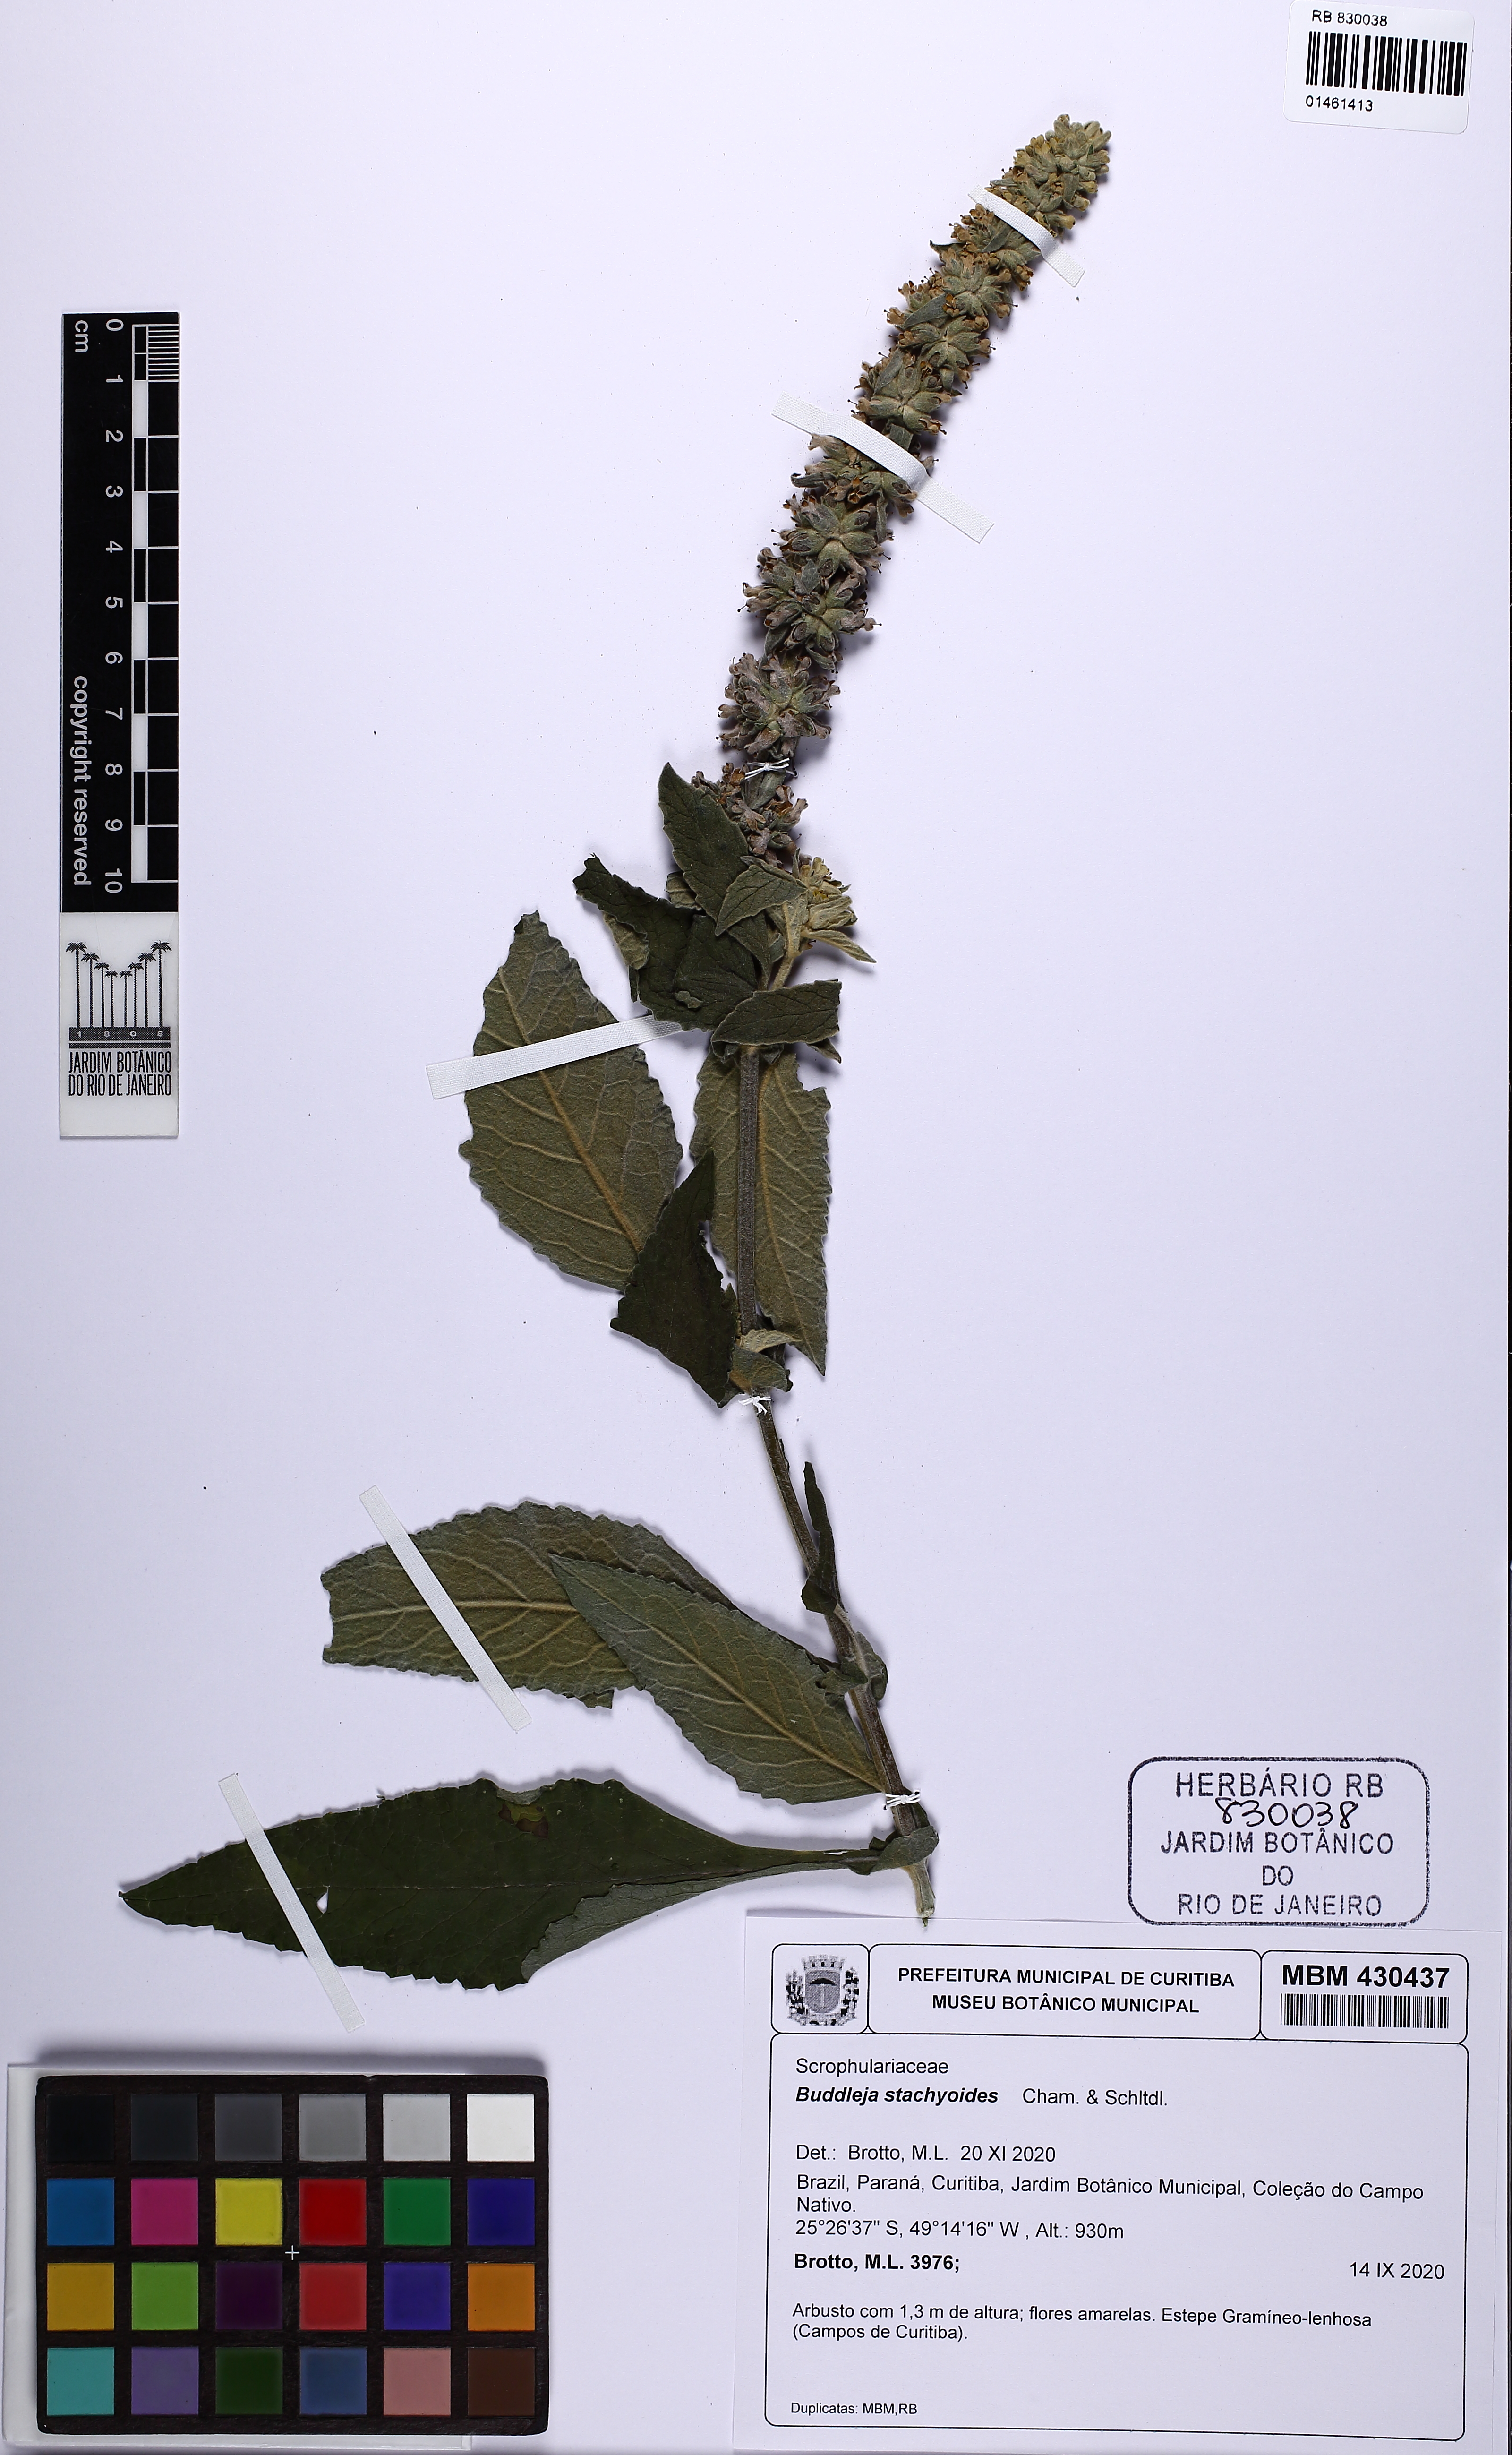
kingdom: Plantae
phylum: Tracheophyta
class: Magnoliopsida
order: Lamiales
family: Scrophulariaceae
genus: Buddleja
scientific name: Buddleja stachyoides
